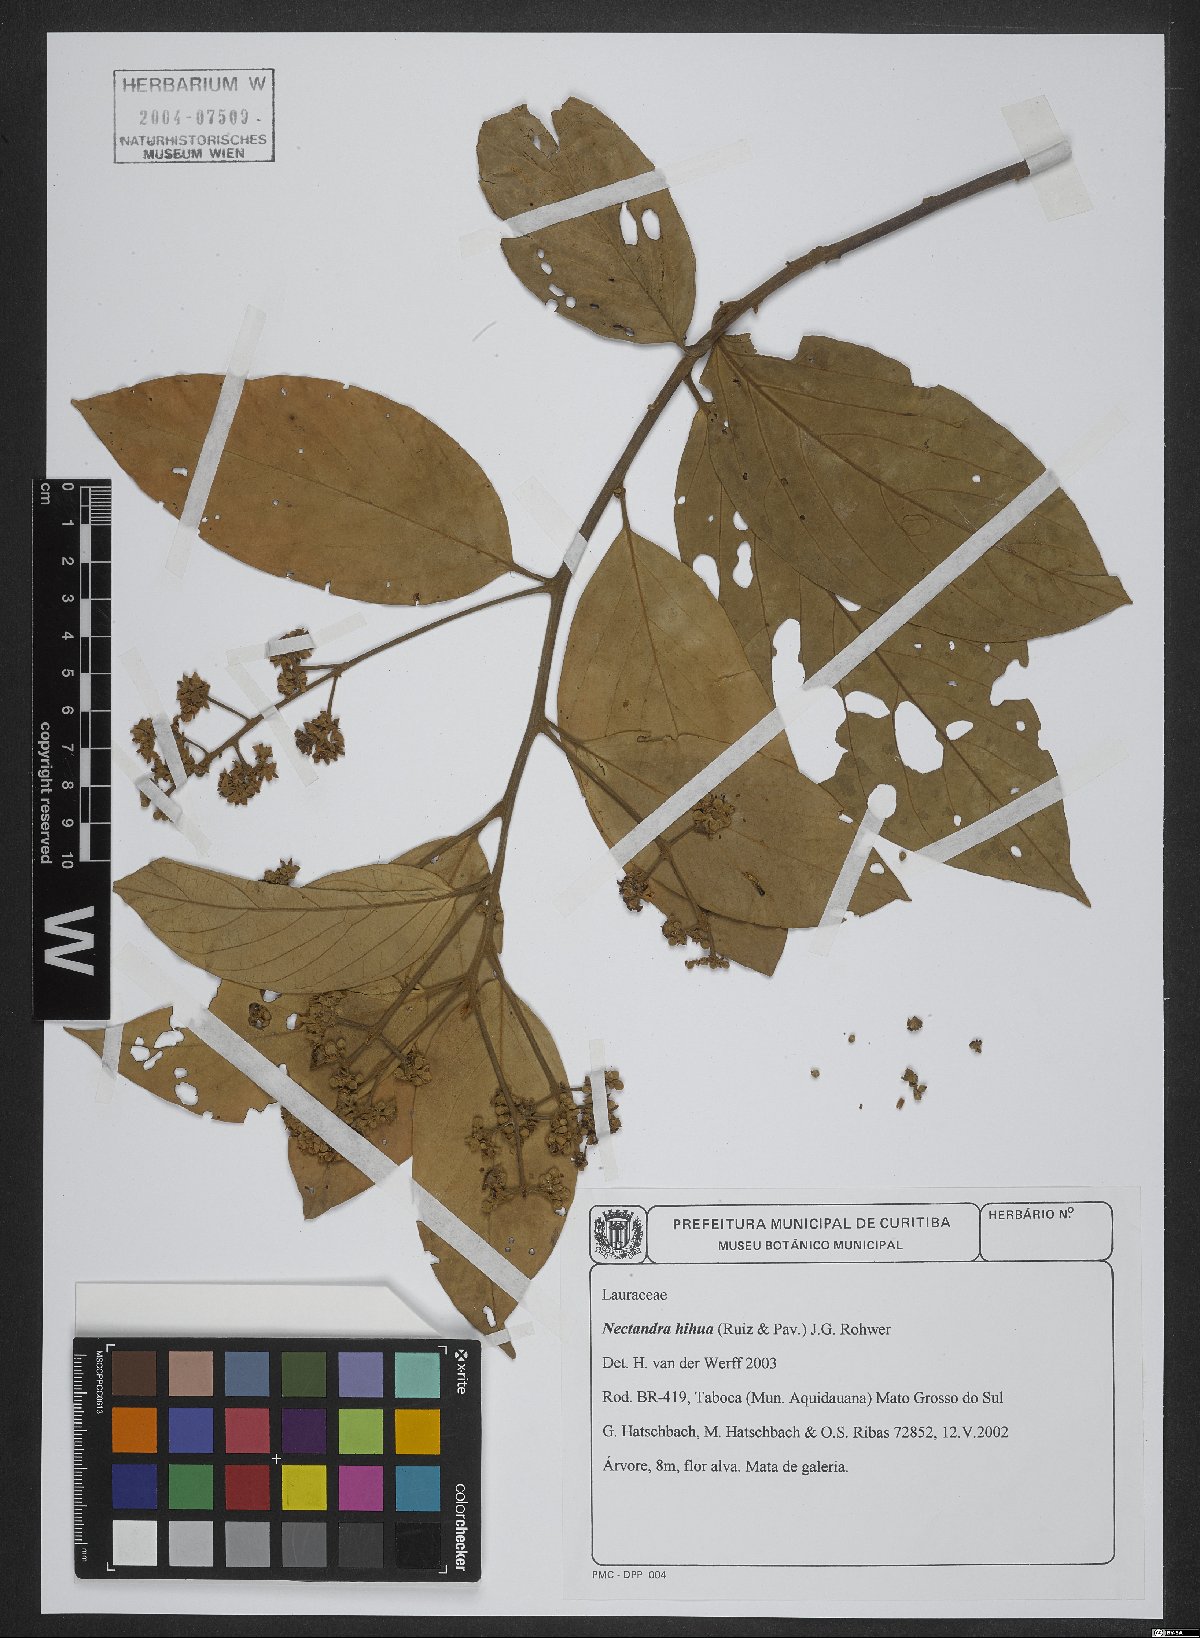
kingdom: Plantae
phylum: Tracheophyta
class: Magnoliopsida
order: Laurales
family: Lauraceae
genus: Nectandra
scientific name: Nectandra hihua
